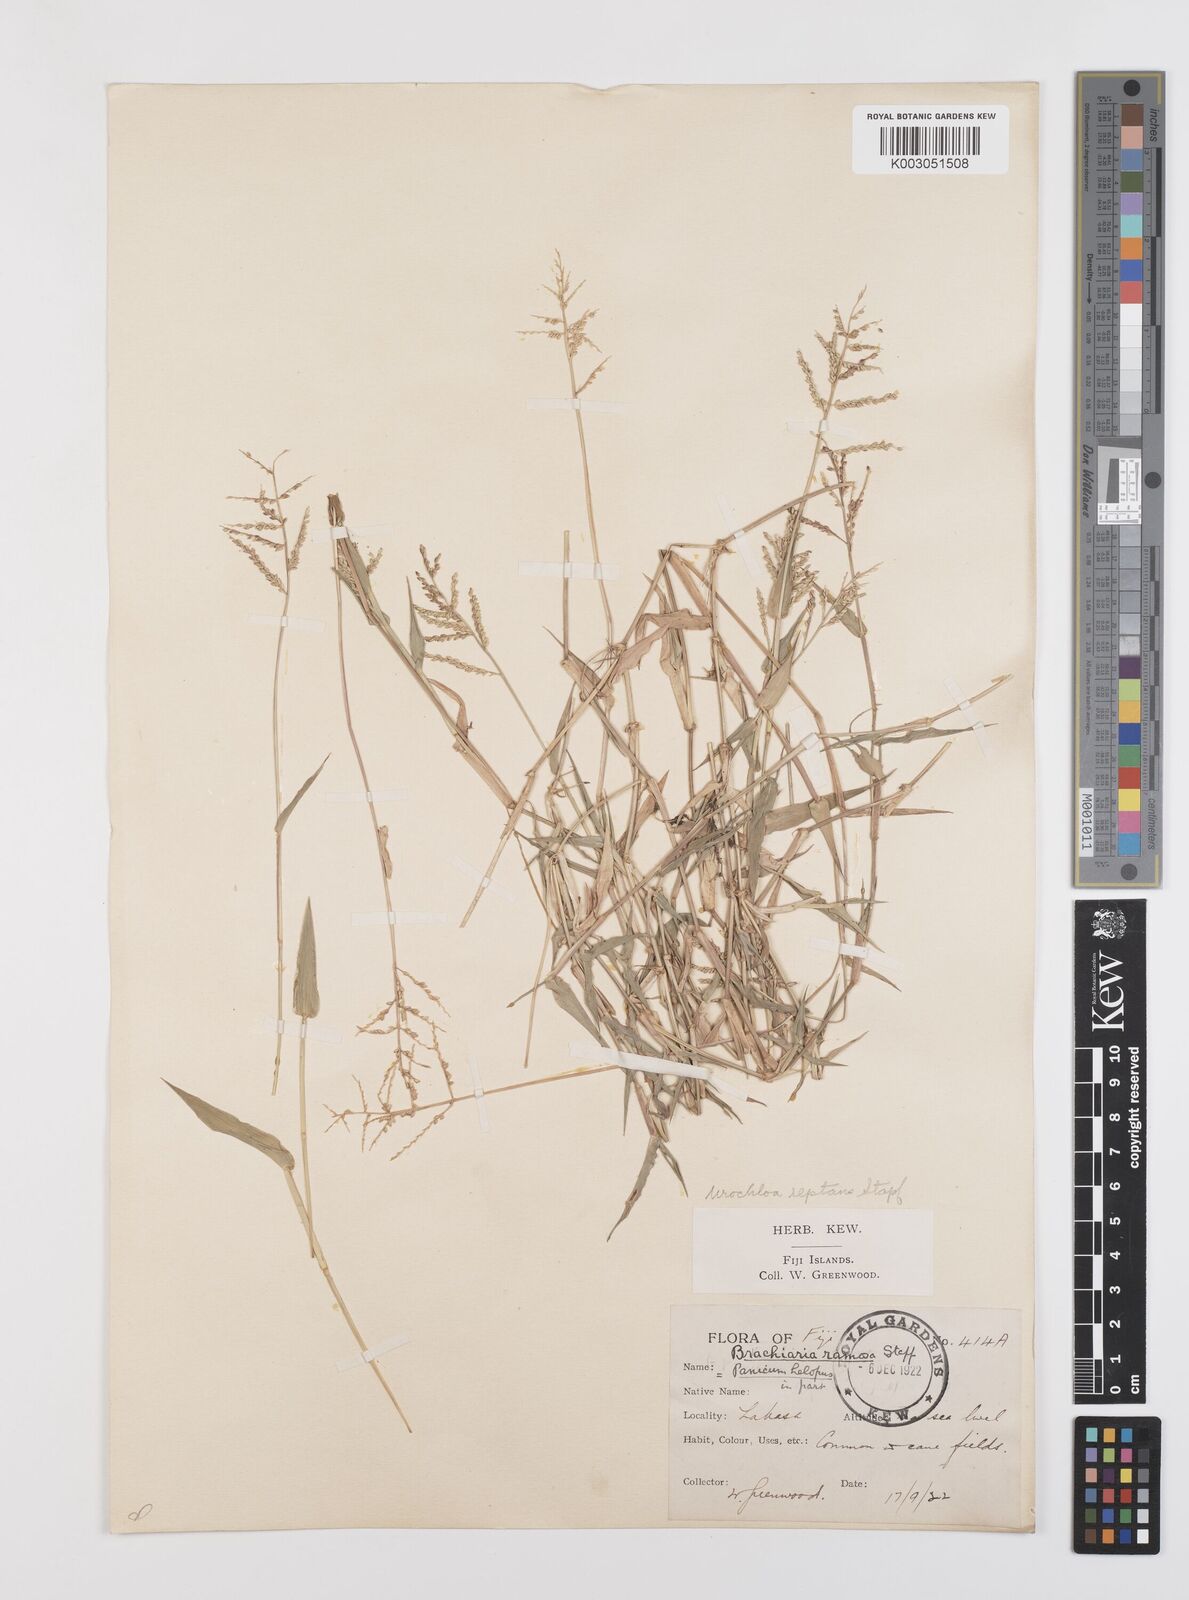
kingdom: Plantae
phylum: Tracheophyta
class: Liliopsida
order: Poales
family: Poaceae
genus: Urochloa
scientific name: Urochloa reptans
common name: Sprawling signalgrass
